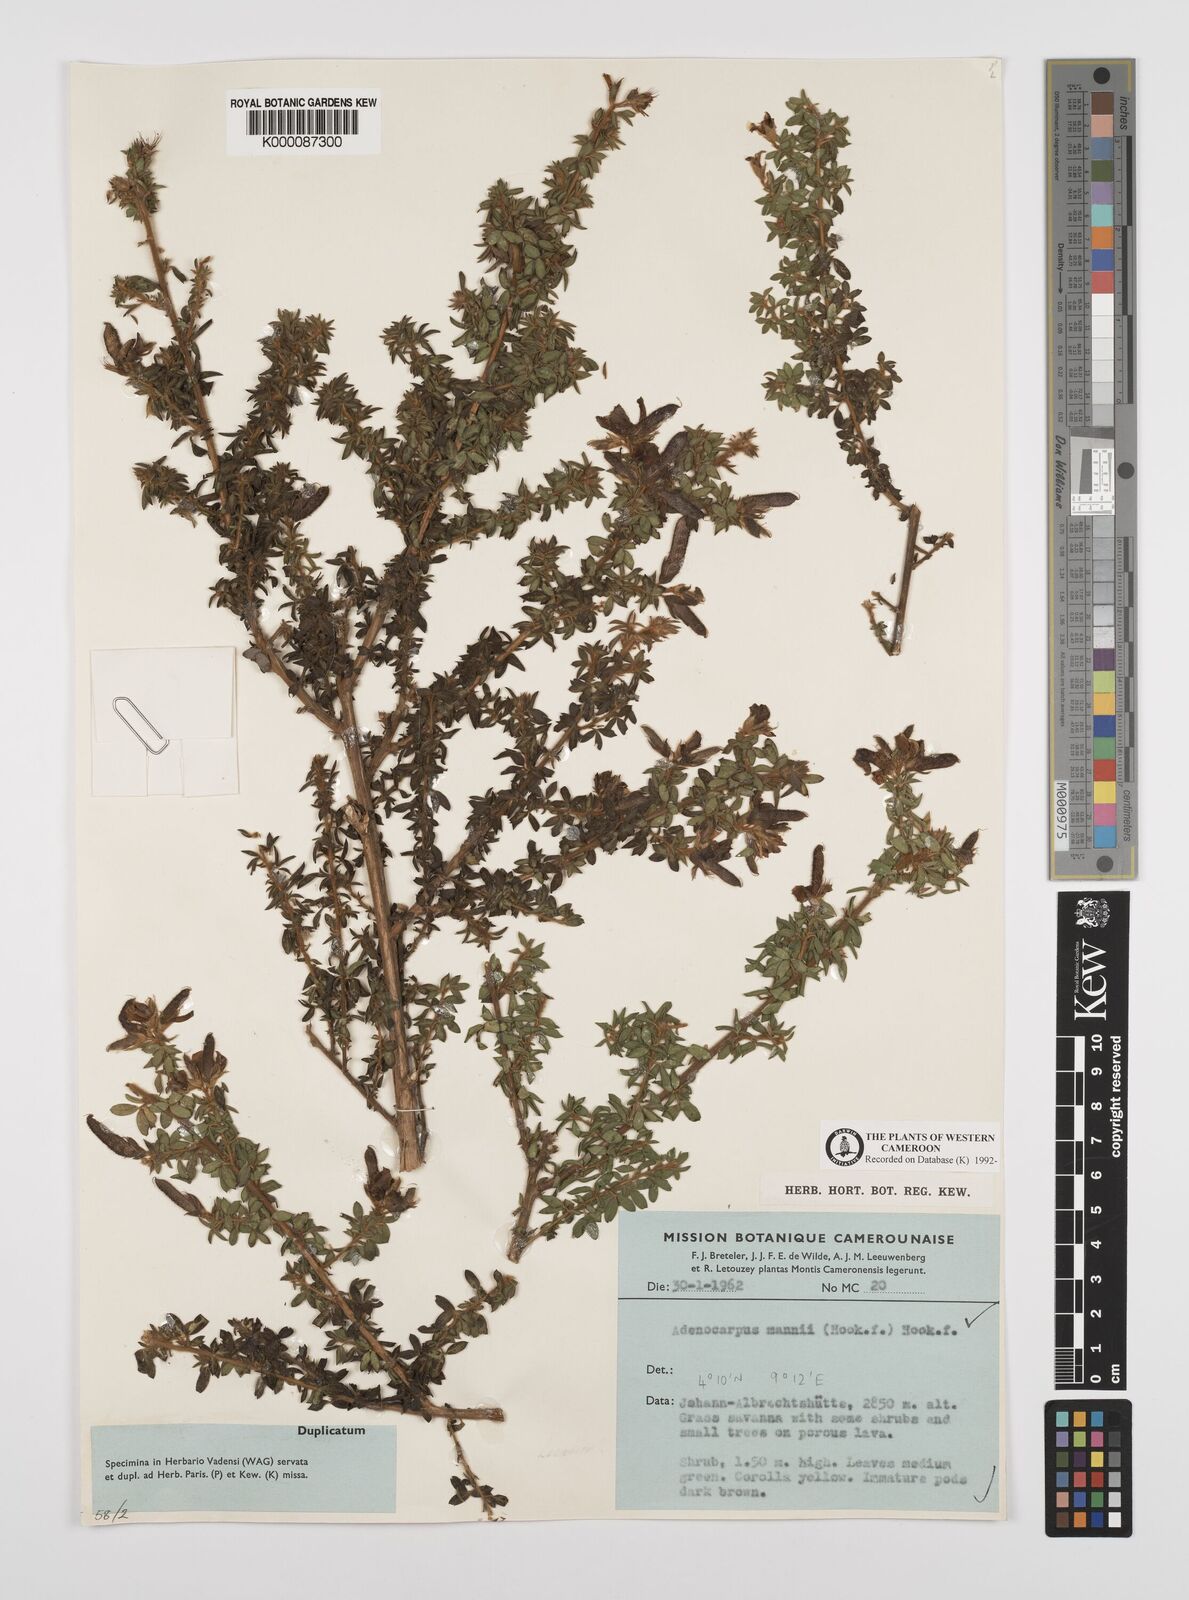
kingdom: Plantae
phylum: Tracheophyta
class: Magnoliopsida
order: Fabales
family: Fabaceae
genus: Adenocarpus
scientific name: Adenocarpus mannii
